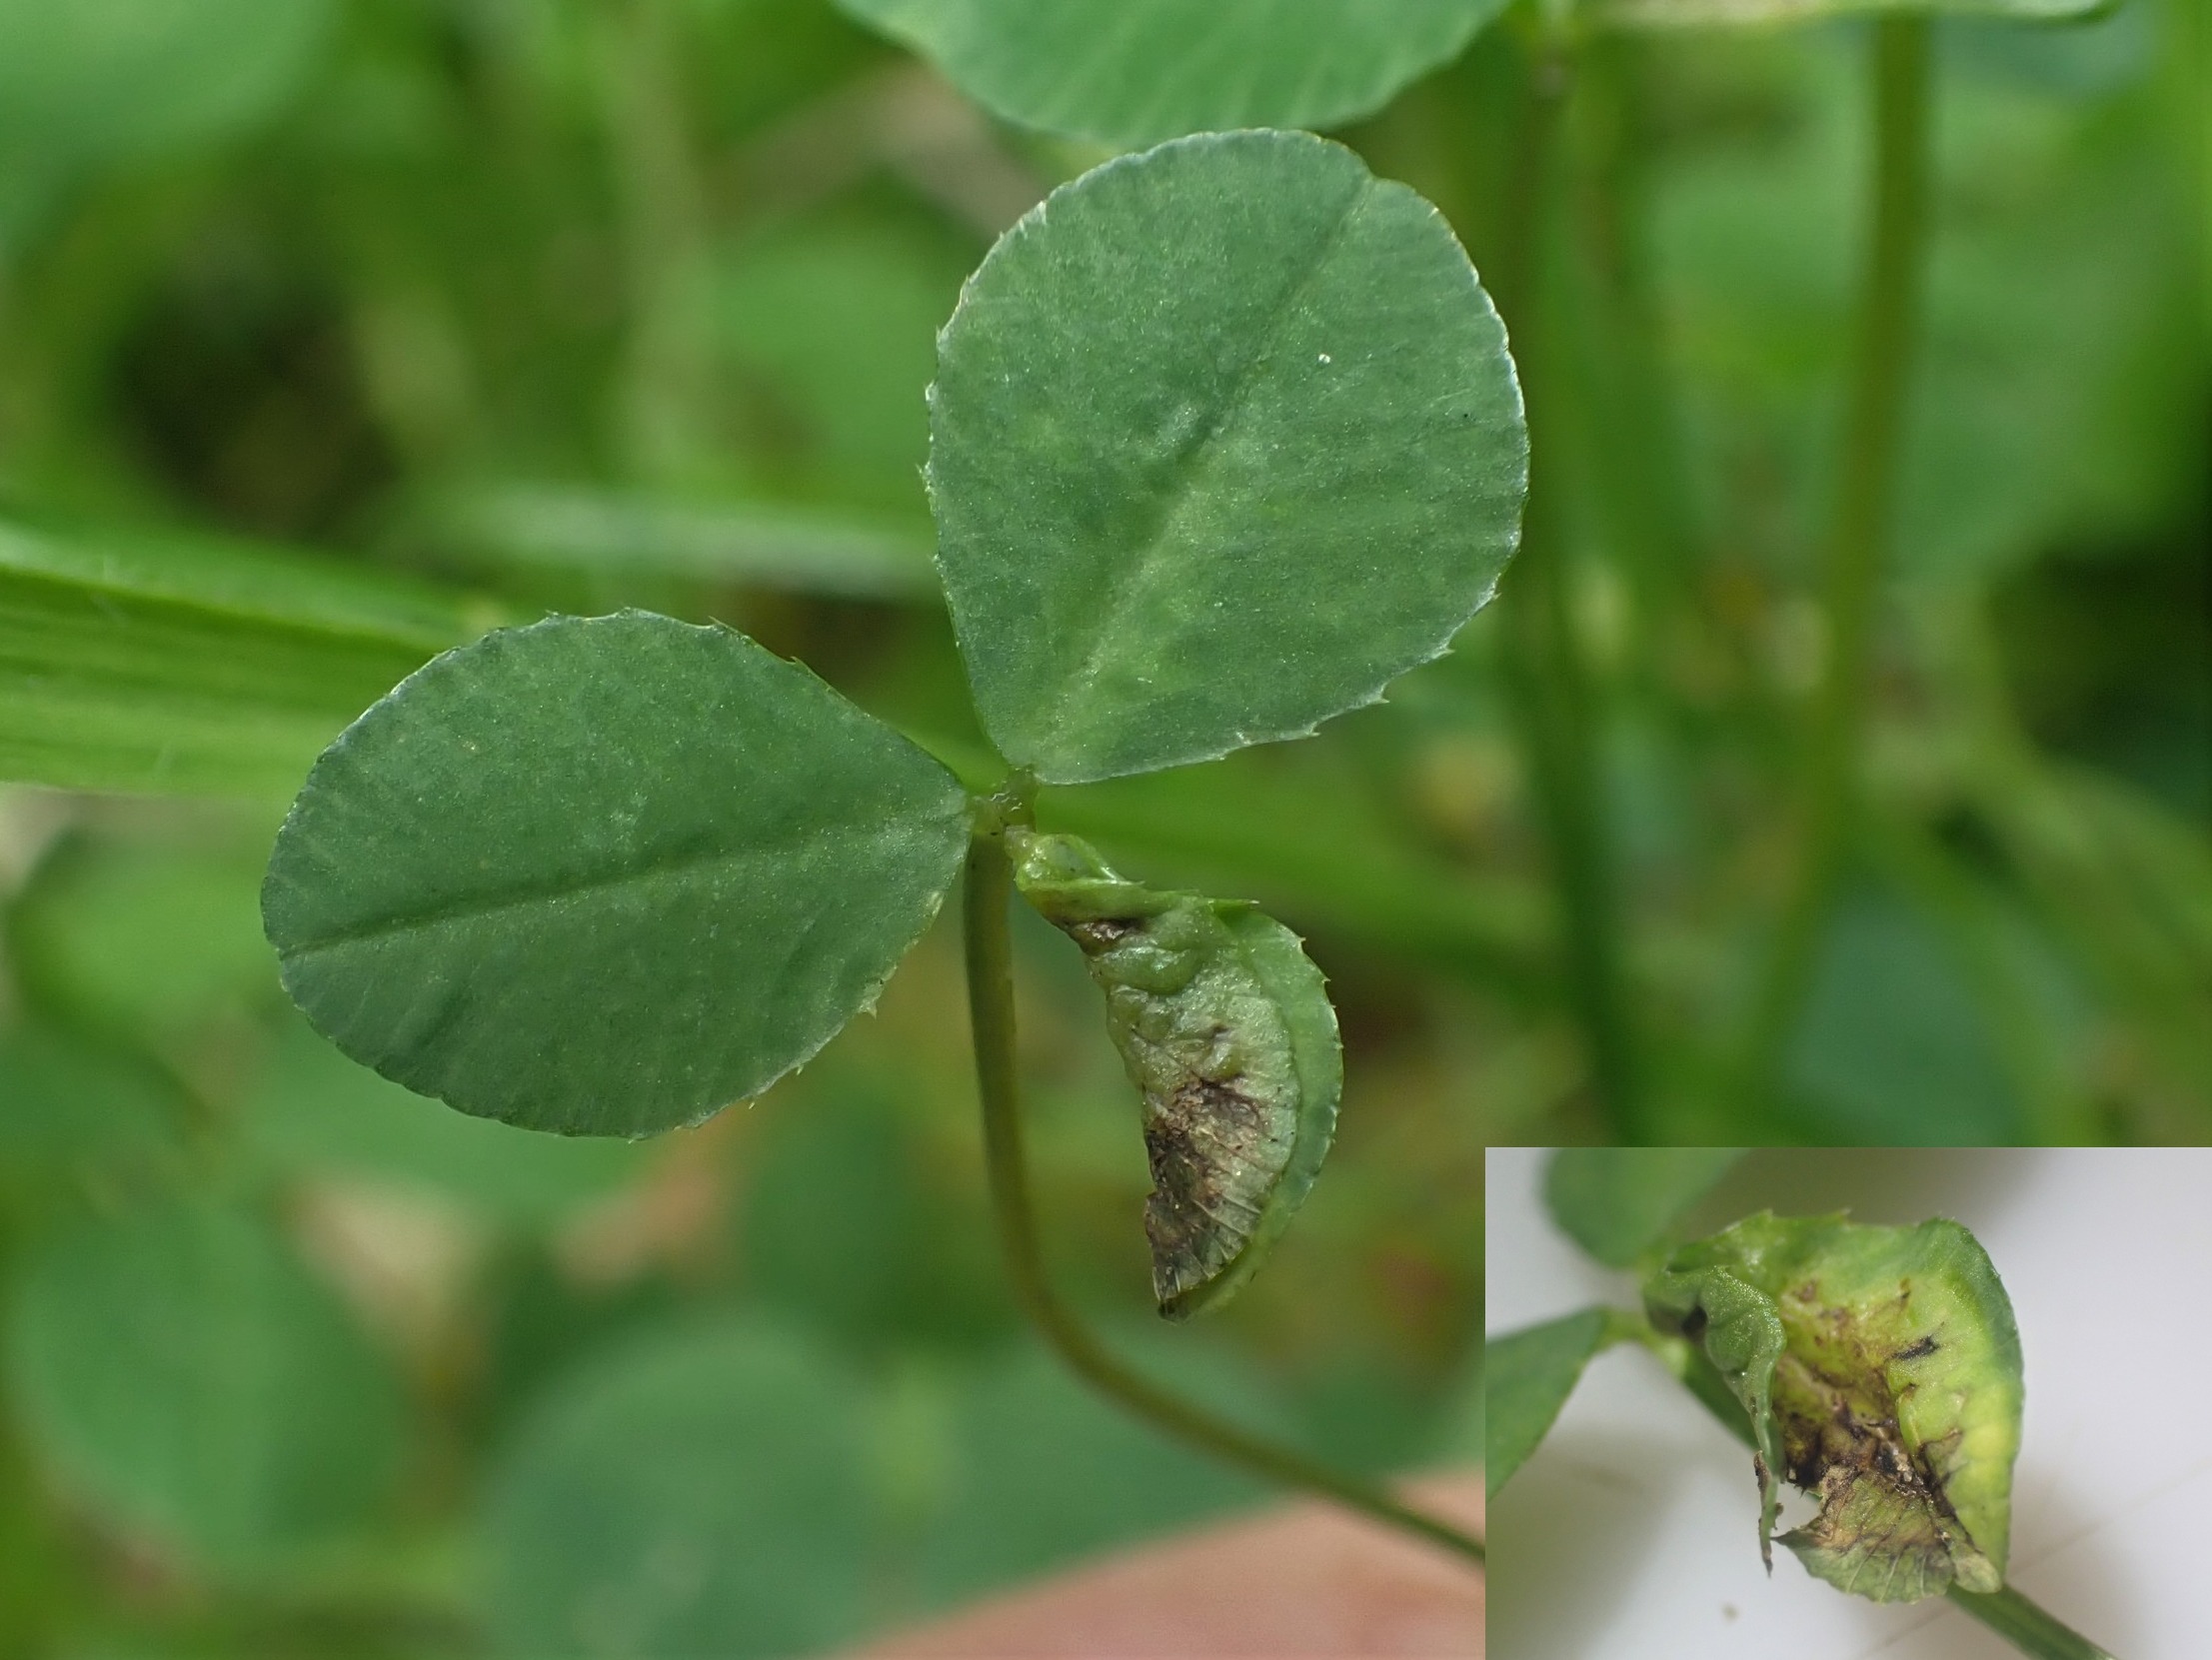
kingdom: Animalia
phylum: Arthropoda
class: Insecta
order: Diptera
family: Cecidomyiidae
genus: Dasineura
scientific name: Dasineura trifolii
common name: Kløverbladgalmyg
